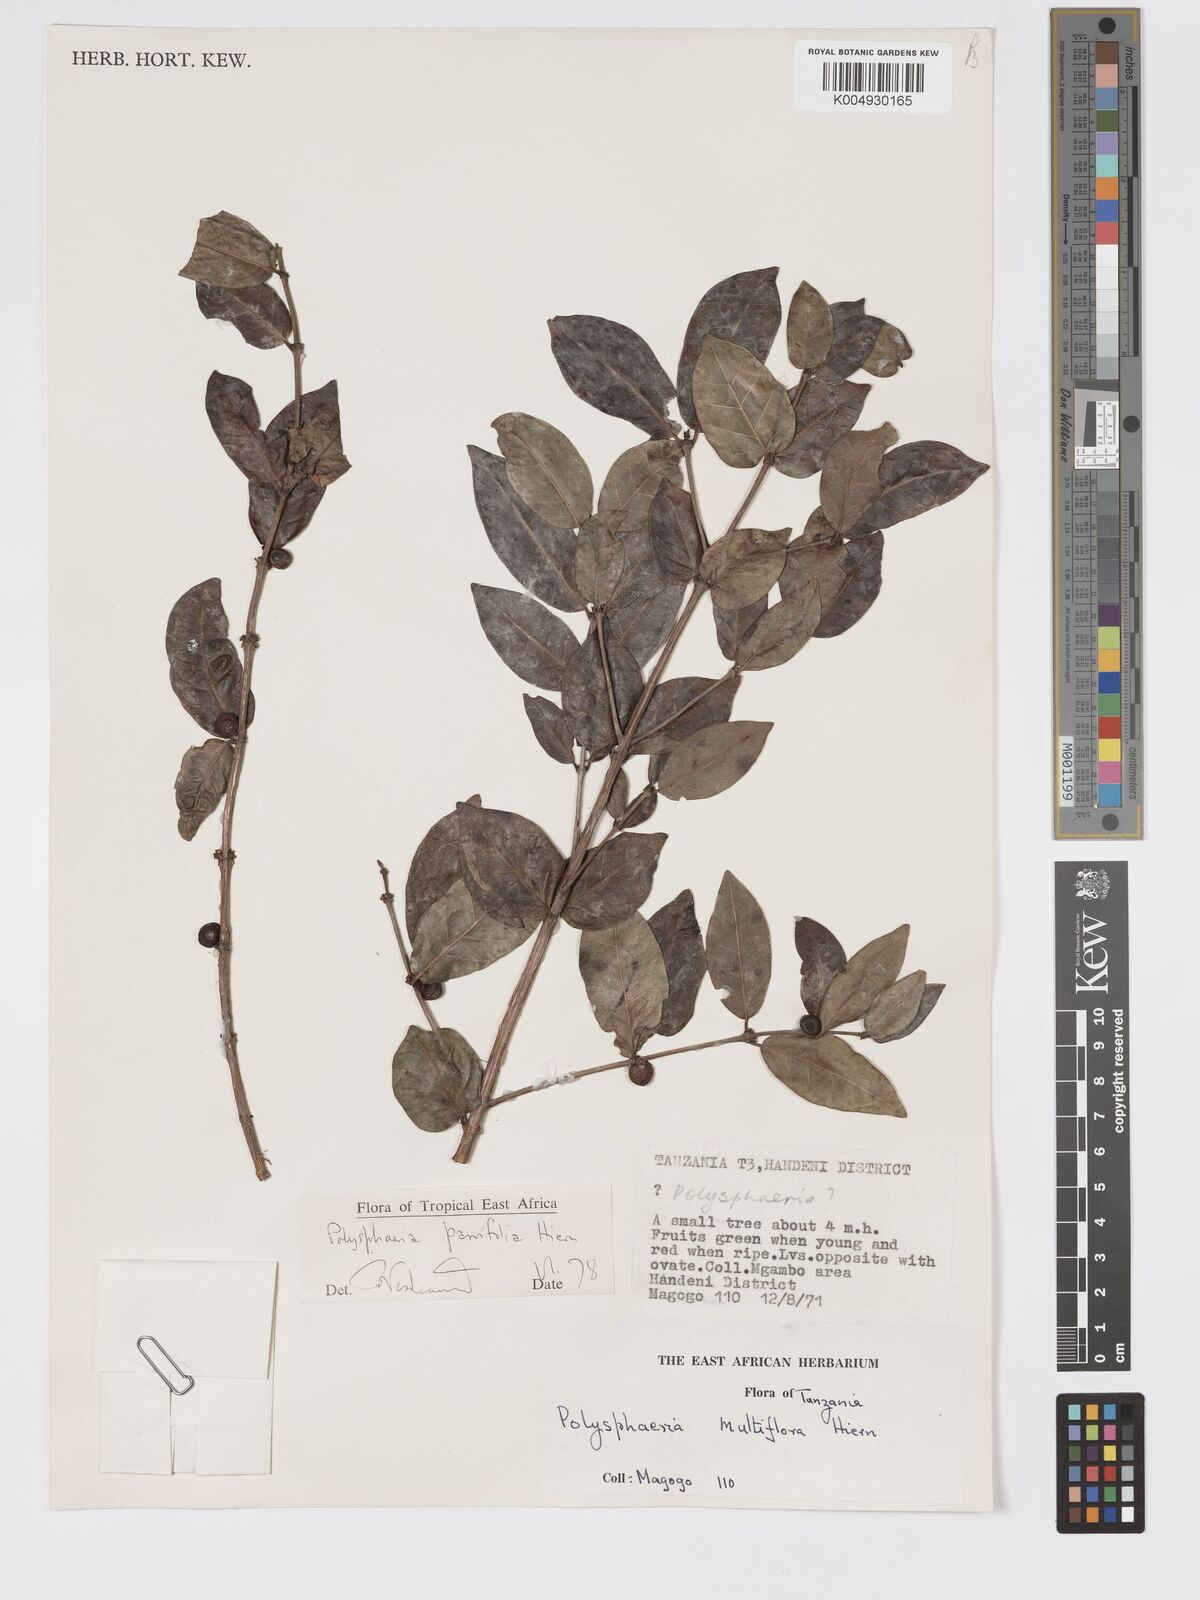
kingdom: Plantae
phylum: Tracheophyta
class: Magnoliopsida
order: Gentianales
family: Rubiaceae
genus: Polysphaeria
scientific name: Polysphaeria parvifolia
